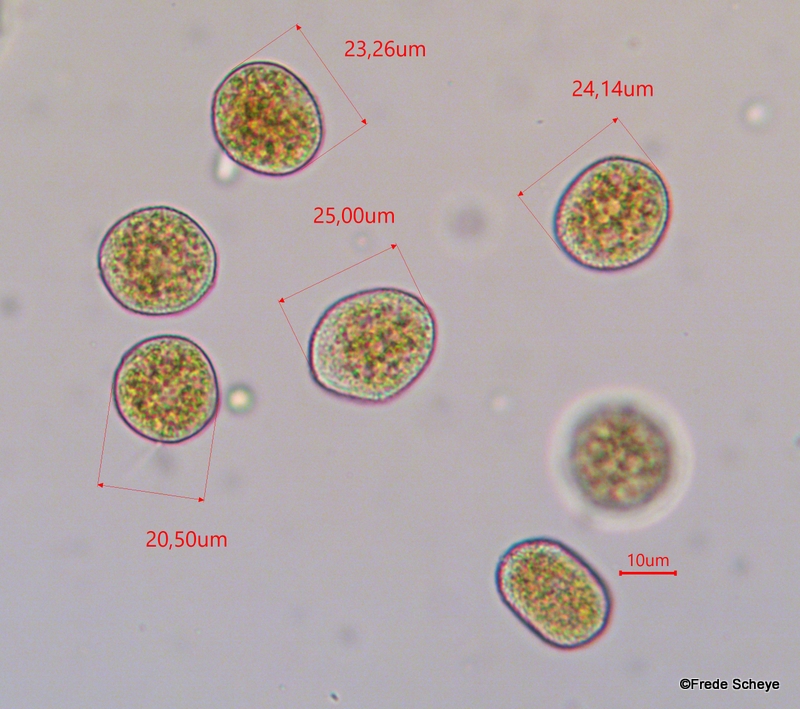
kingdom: Fungi
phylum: Basidiomycota
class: Pucciniomycetes
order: Pucciniales
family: Pucciniaceae
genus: Uromyces
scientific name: Uromyces dactylidis
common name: ranunkel-encellerust
